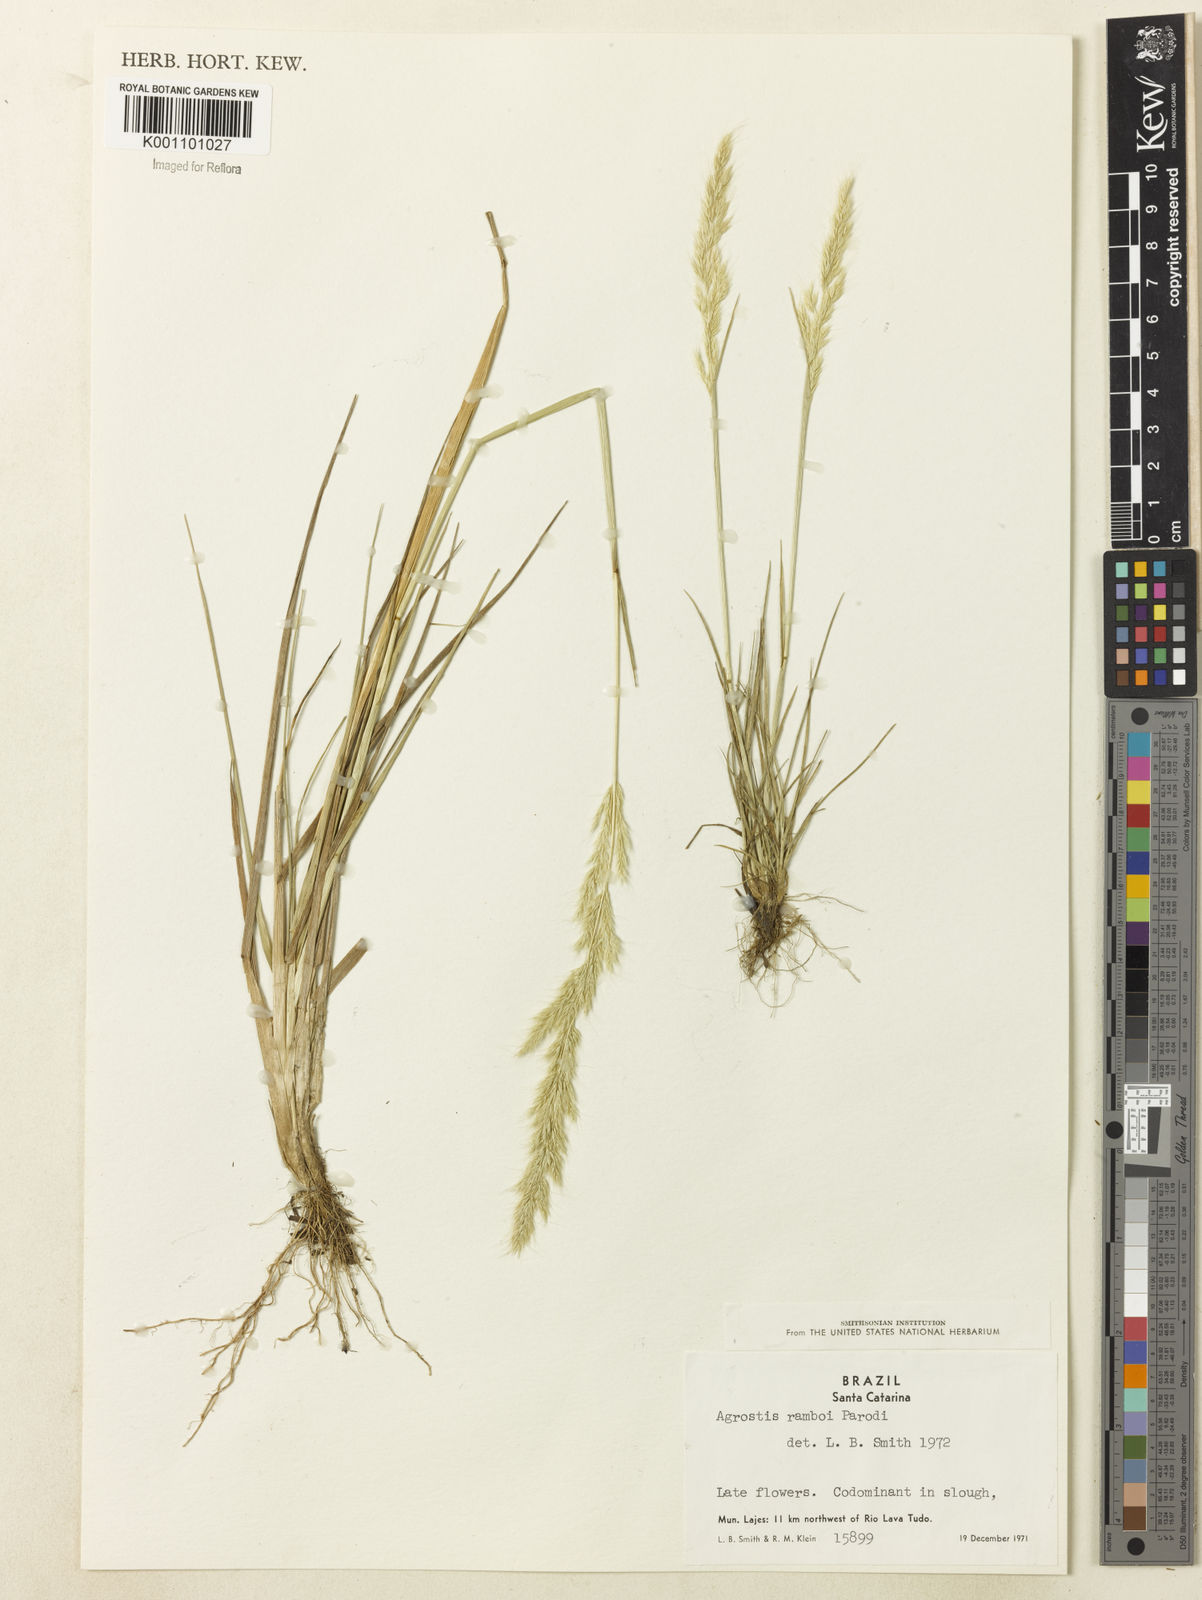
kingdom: Plantae
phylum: Tracheophyta
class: Liliopsida
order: Poales
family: Poaceae
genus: Agrostis
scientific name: Agrostis hygrometrica
